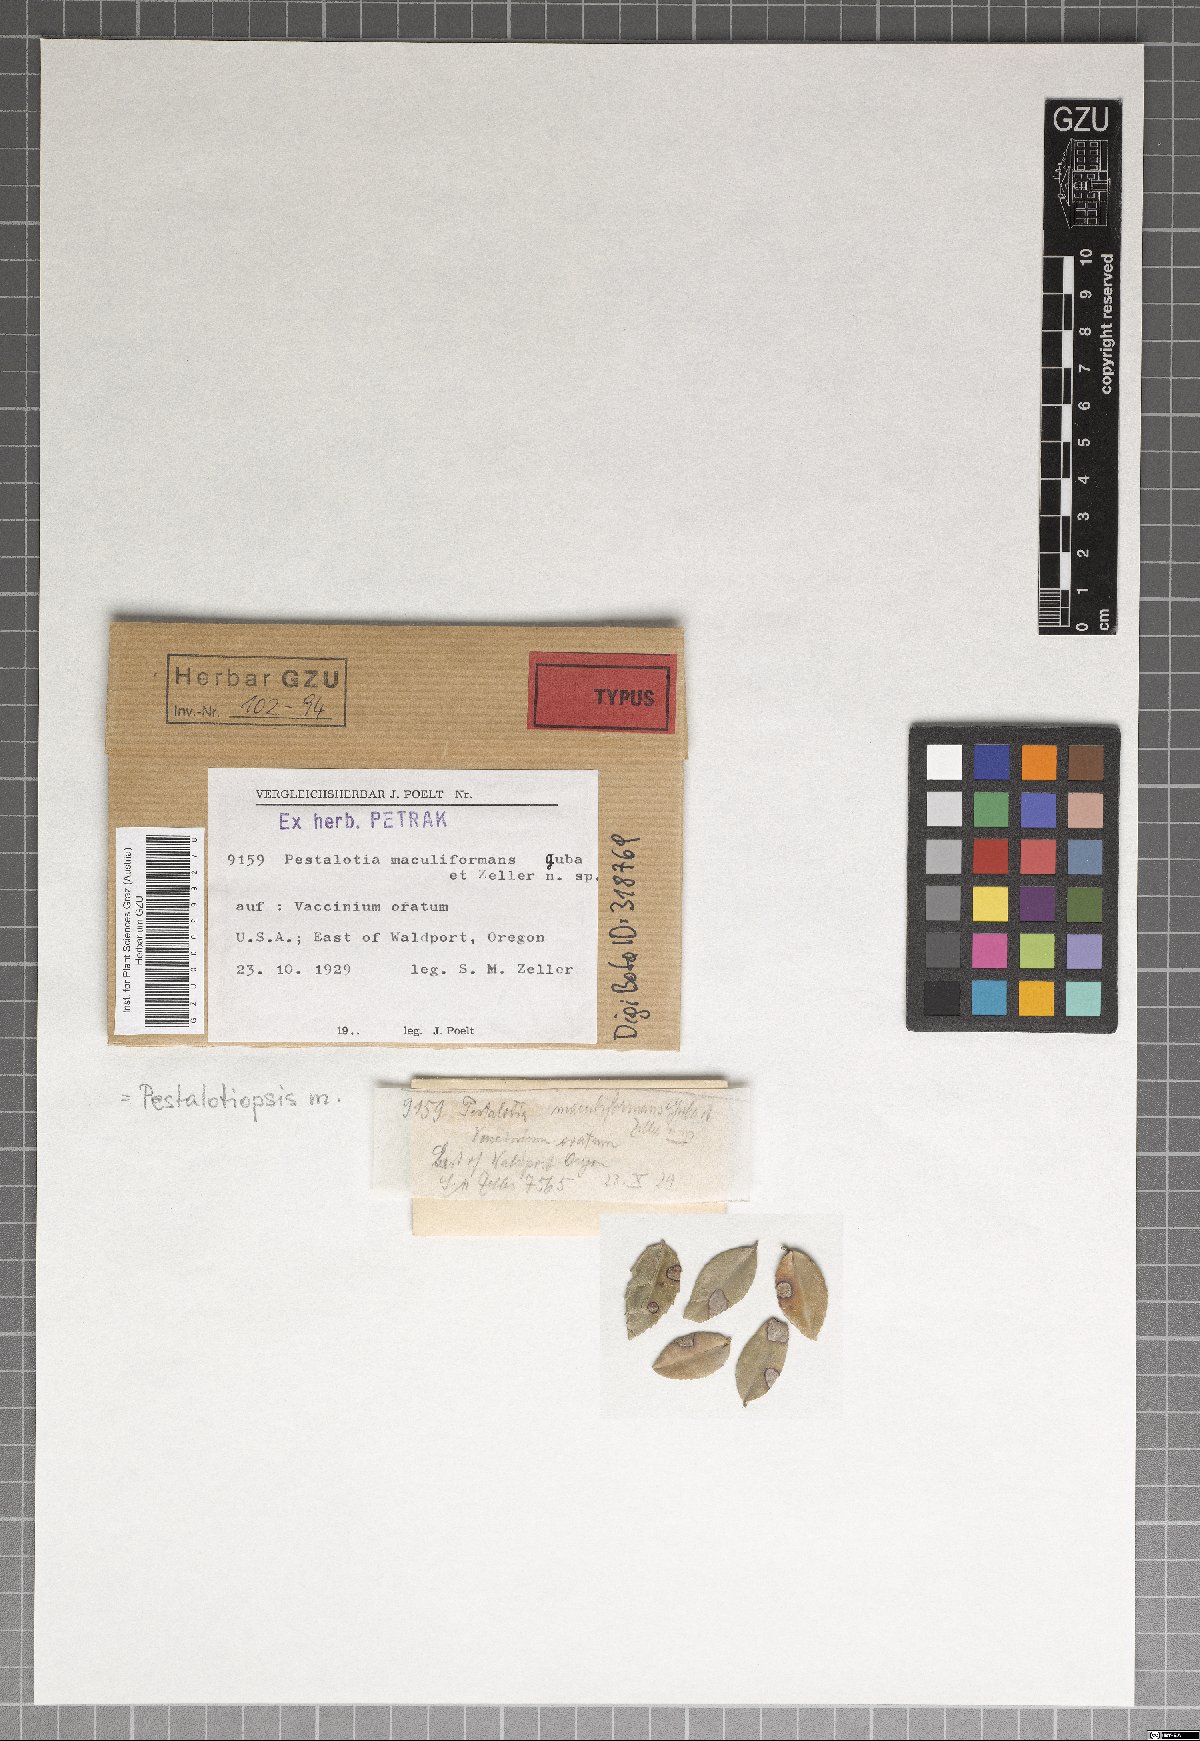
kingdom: Fungi
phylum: Ascomycota
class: Sordariomycetes
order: Amphisphaeriales
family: Pestalotiopsidaceae
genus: Pestalotiopsis
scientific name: Pestalotiopsis maculiformans
